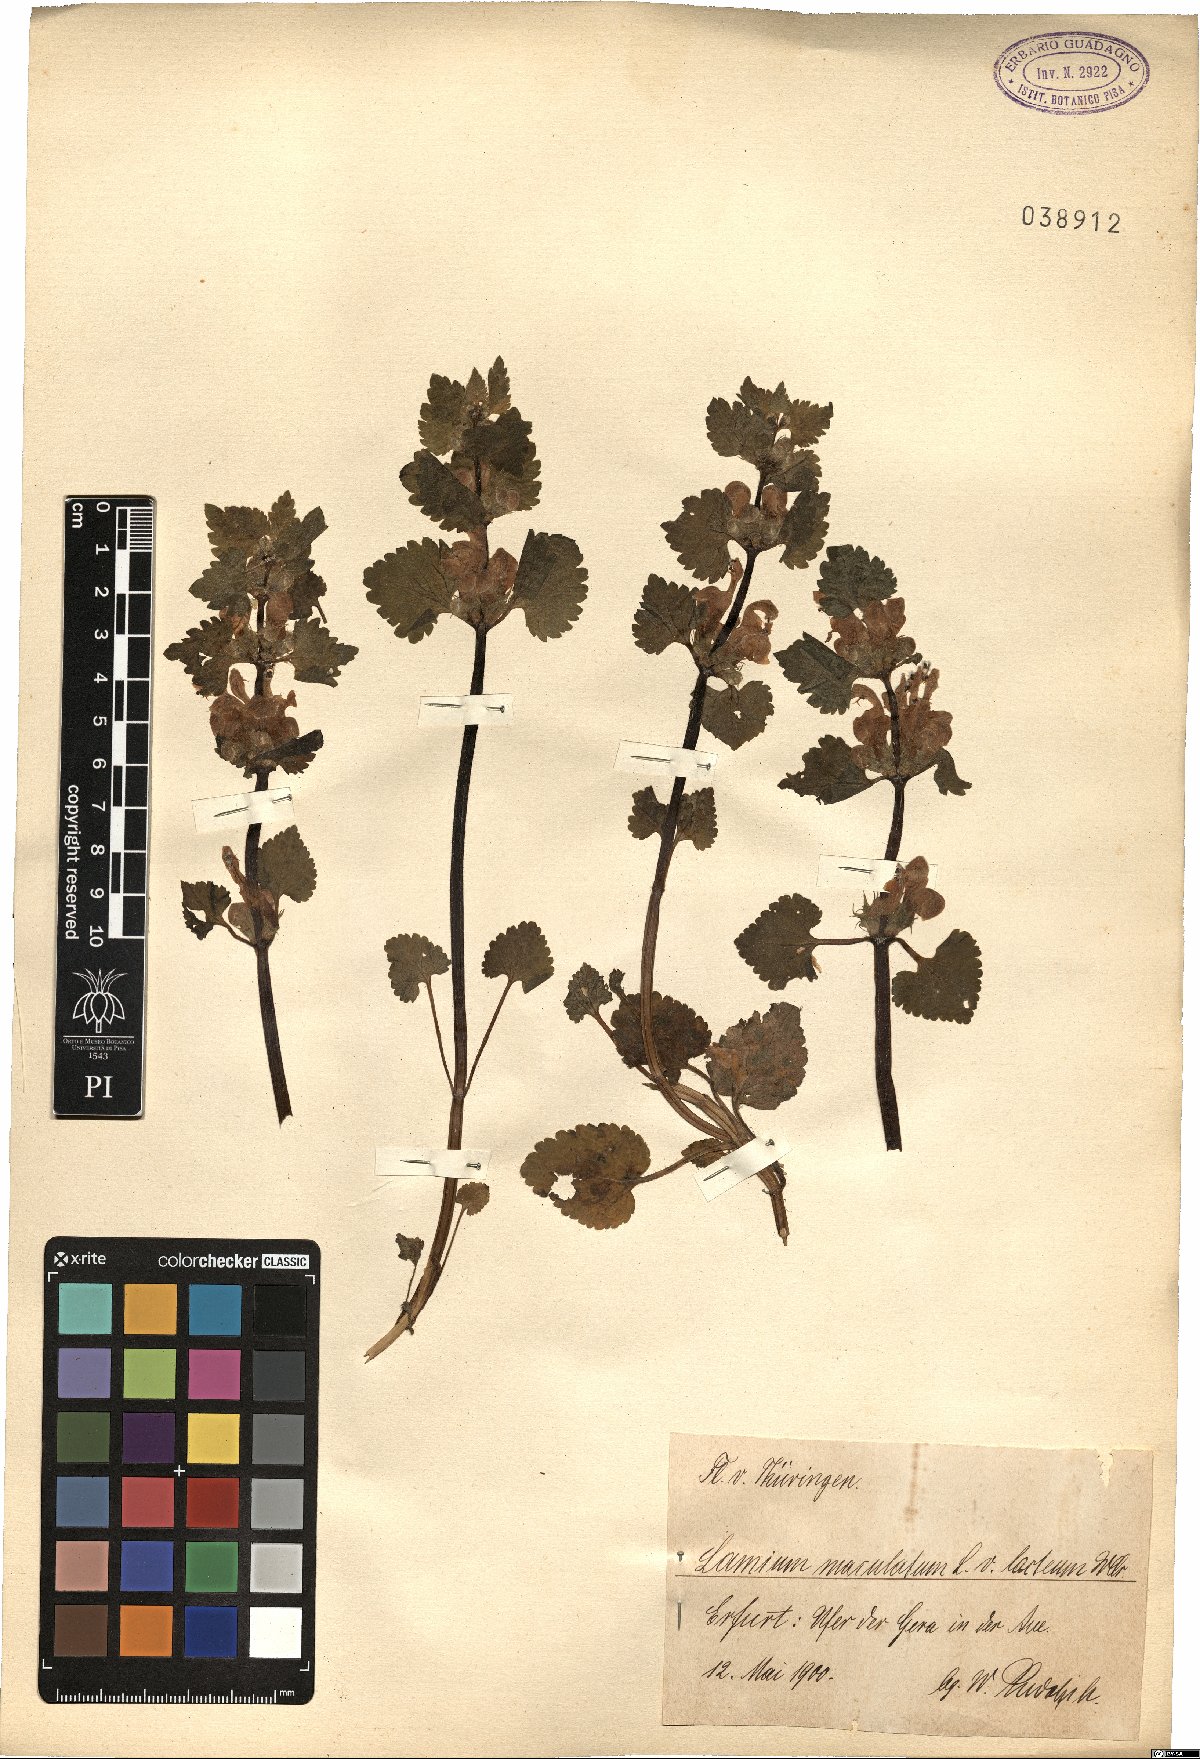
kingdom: Plantae
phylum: Tracheophyta
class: Magnoliopsida
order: Lamiales
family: Lamiaceae
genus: Lamium
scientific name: Lamium maculatum
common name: Spotted dead-nettle
